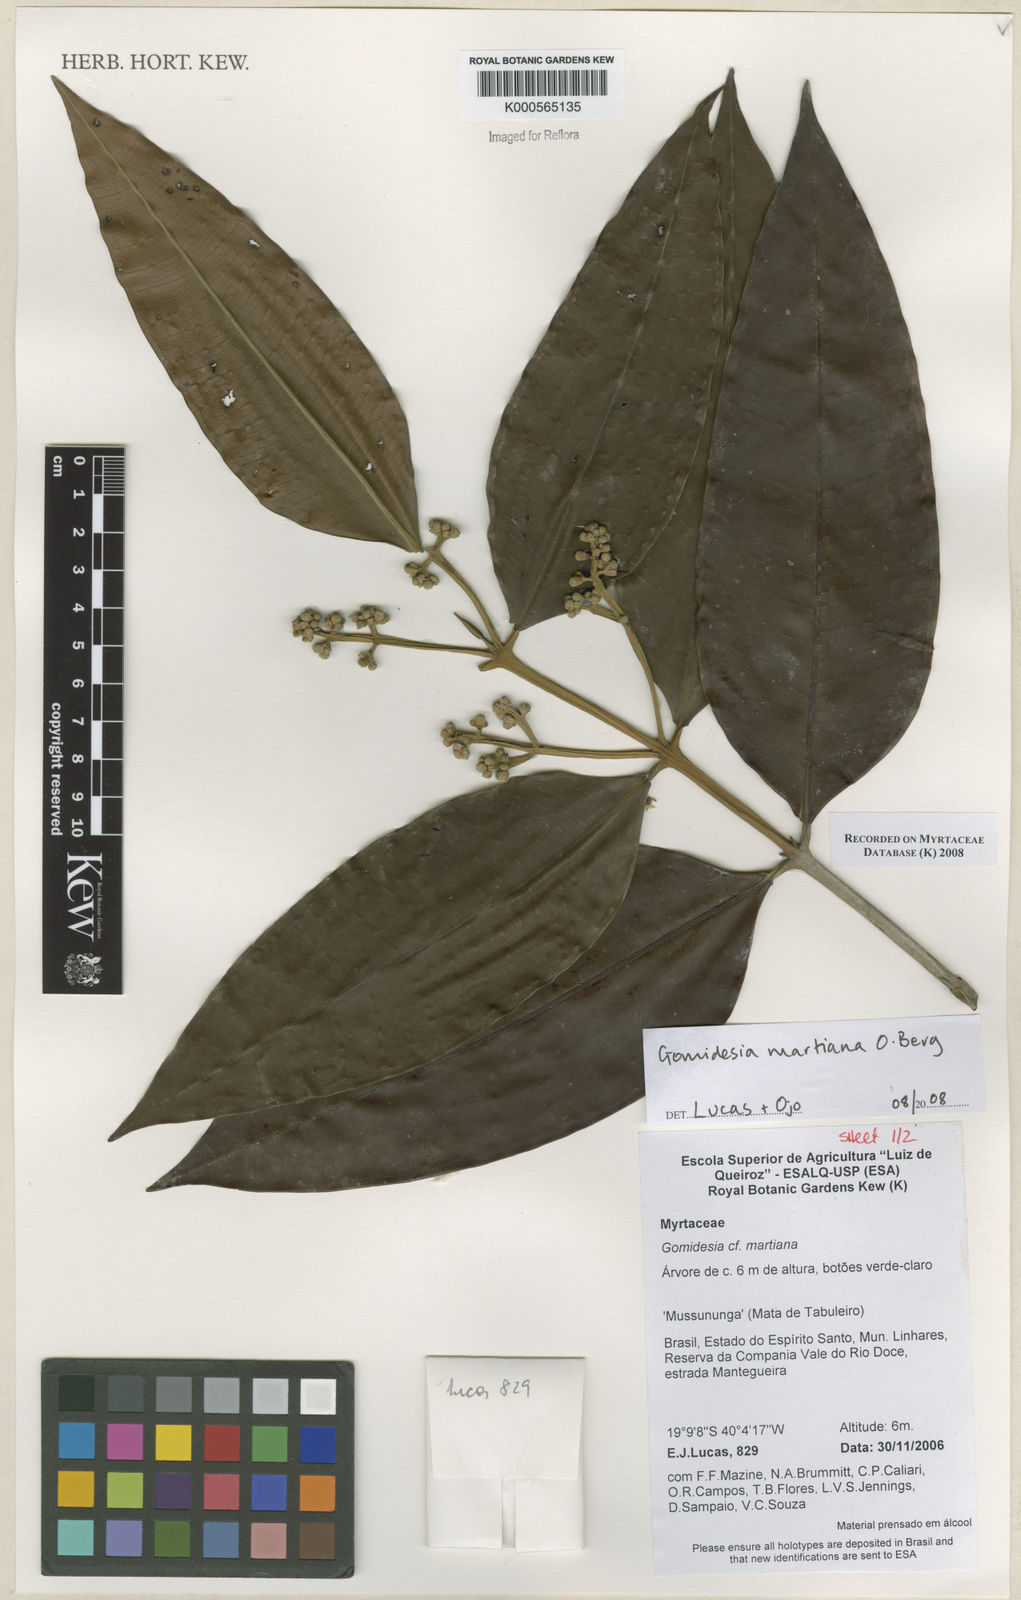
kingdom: Plantae
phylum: Tracheophyta
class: Magnoliopsida
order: Myrtales
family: Myrtaceae
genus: Myrcia
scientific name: Myrcia vittoriana
